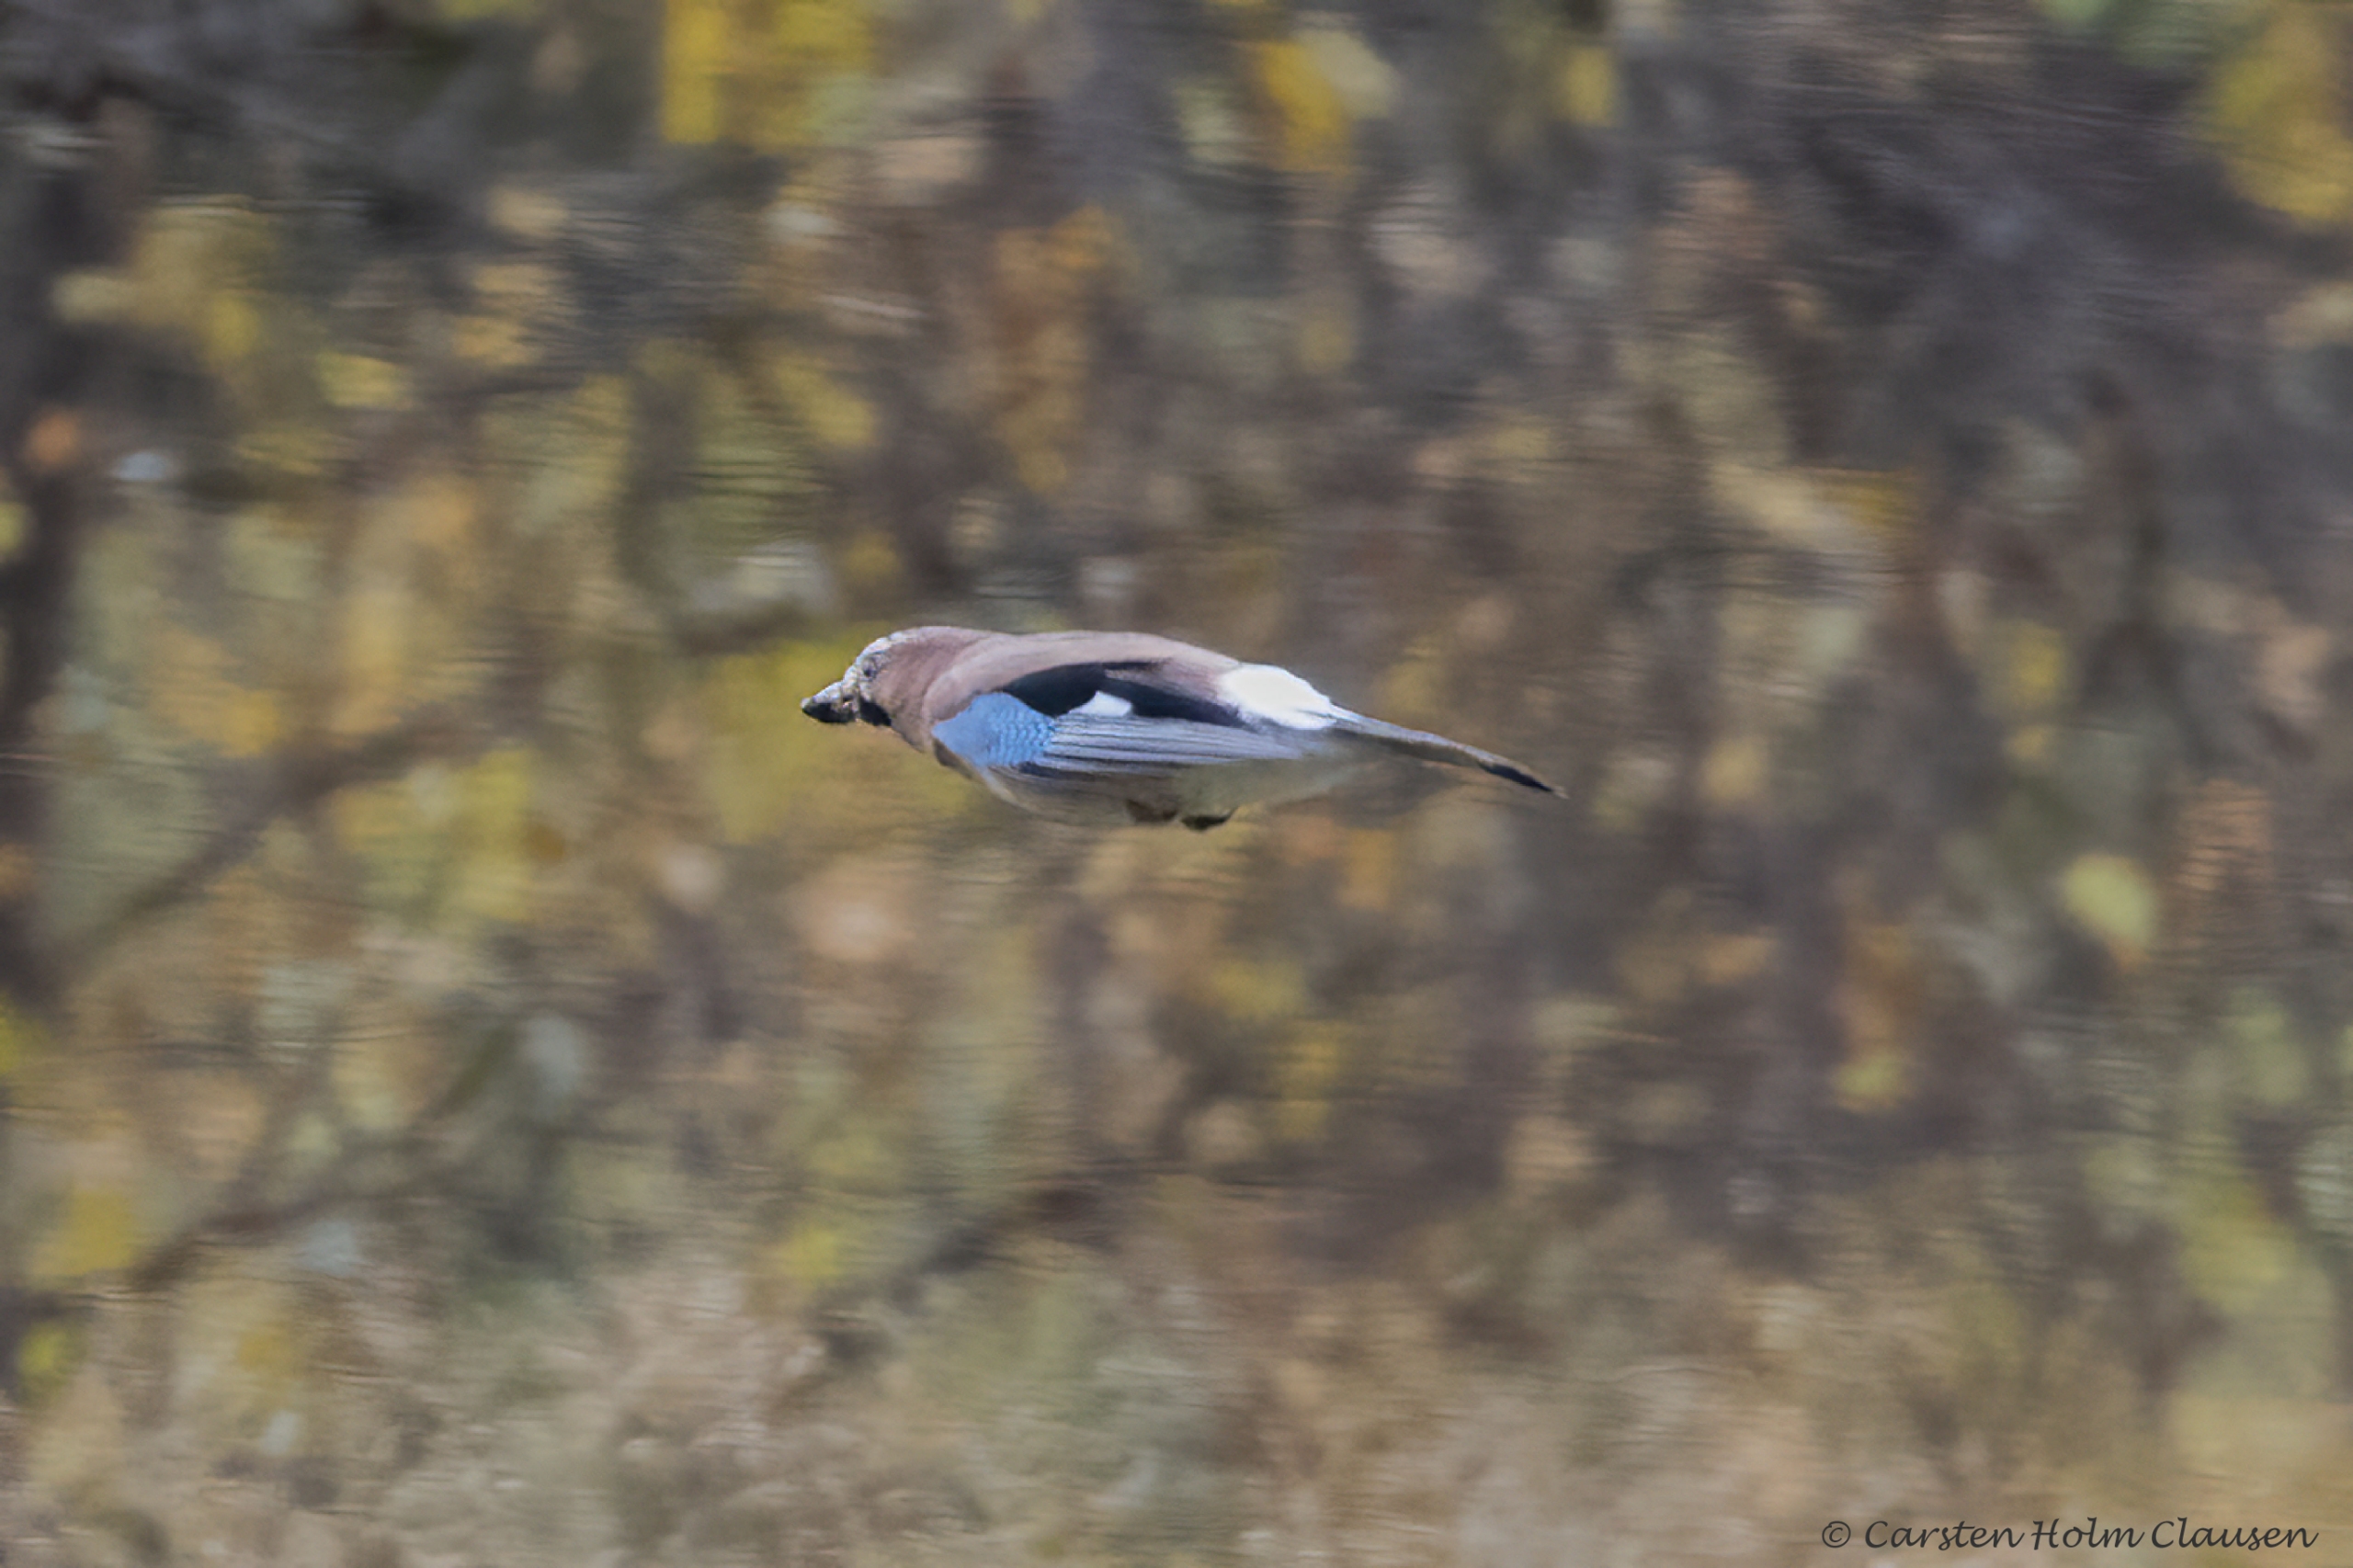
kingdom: Animalia
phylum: Chordata
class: Aves
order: Passeriformes
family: Corvidae
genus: Garrulus
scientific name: Garrulus glandarius
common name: Skovskade
